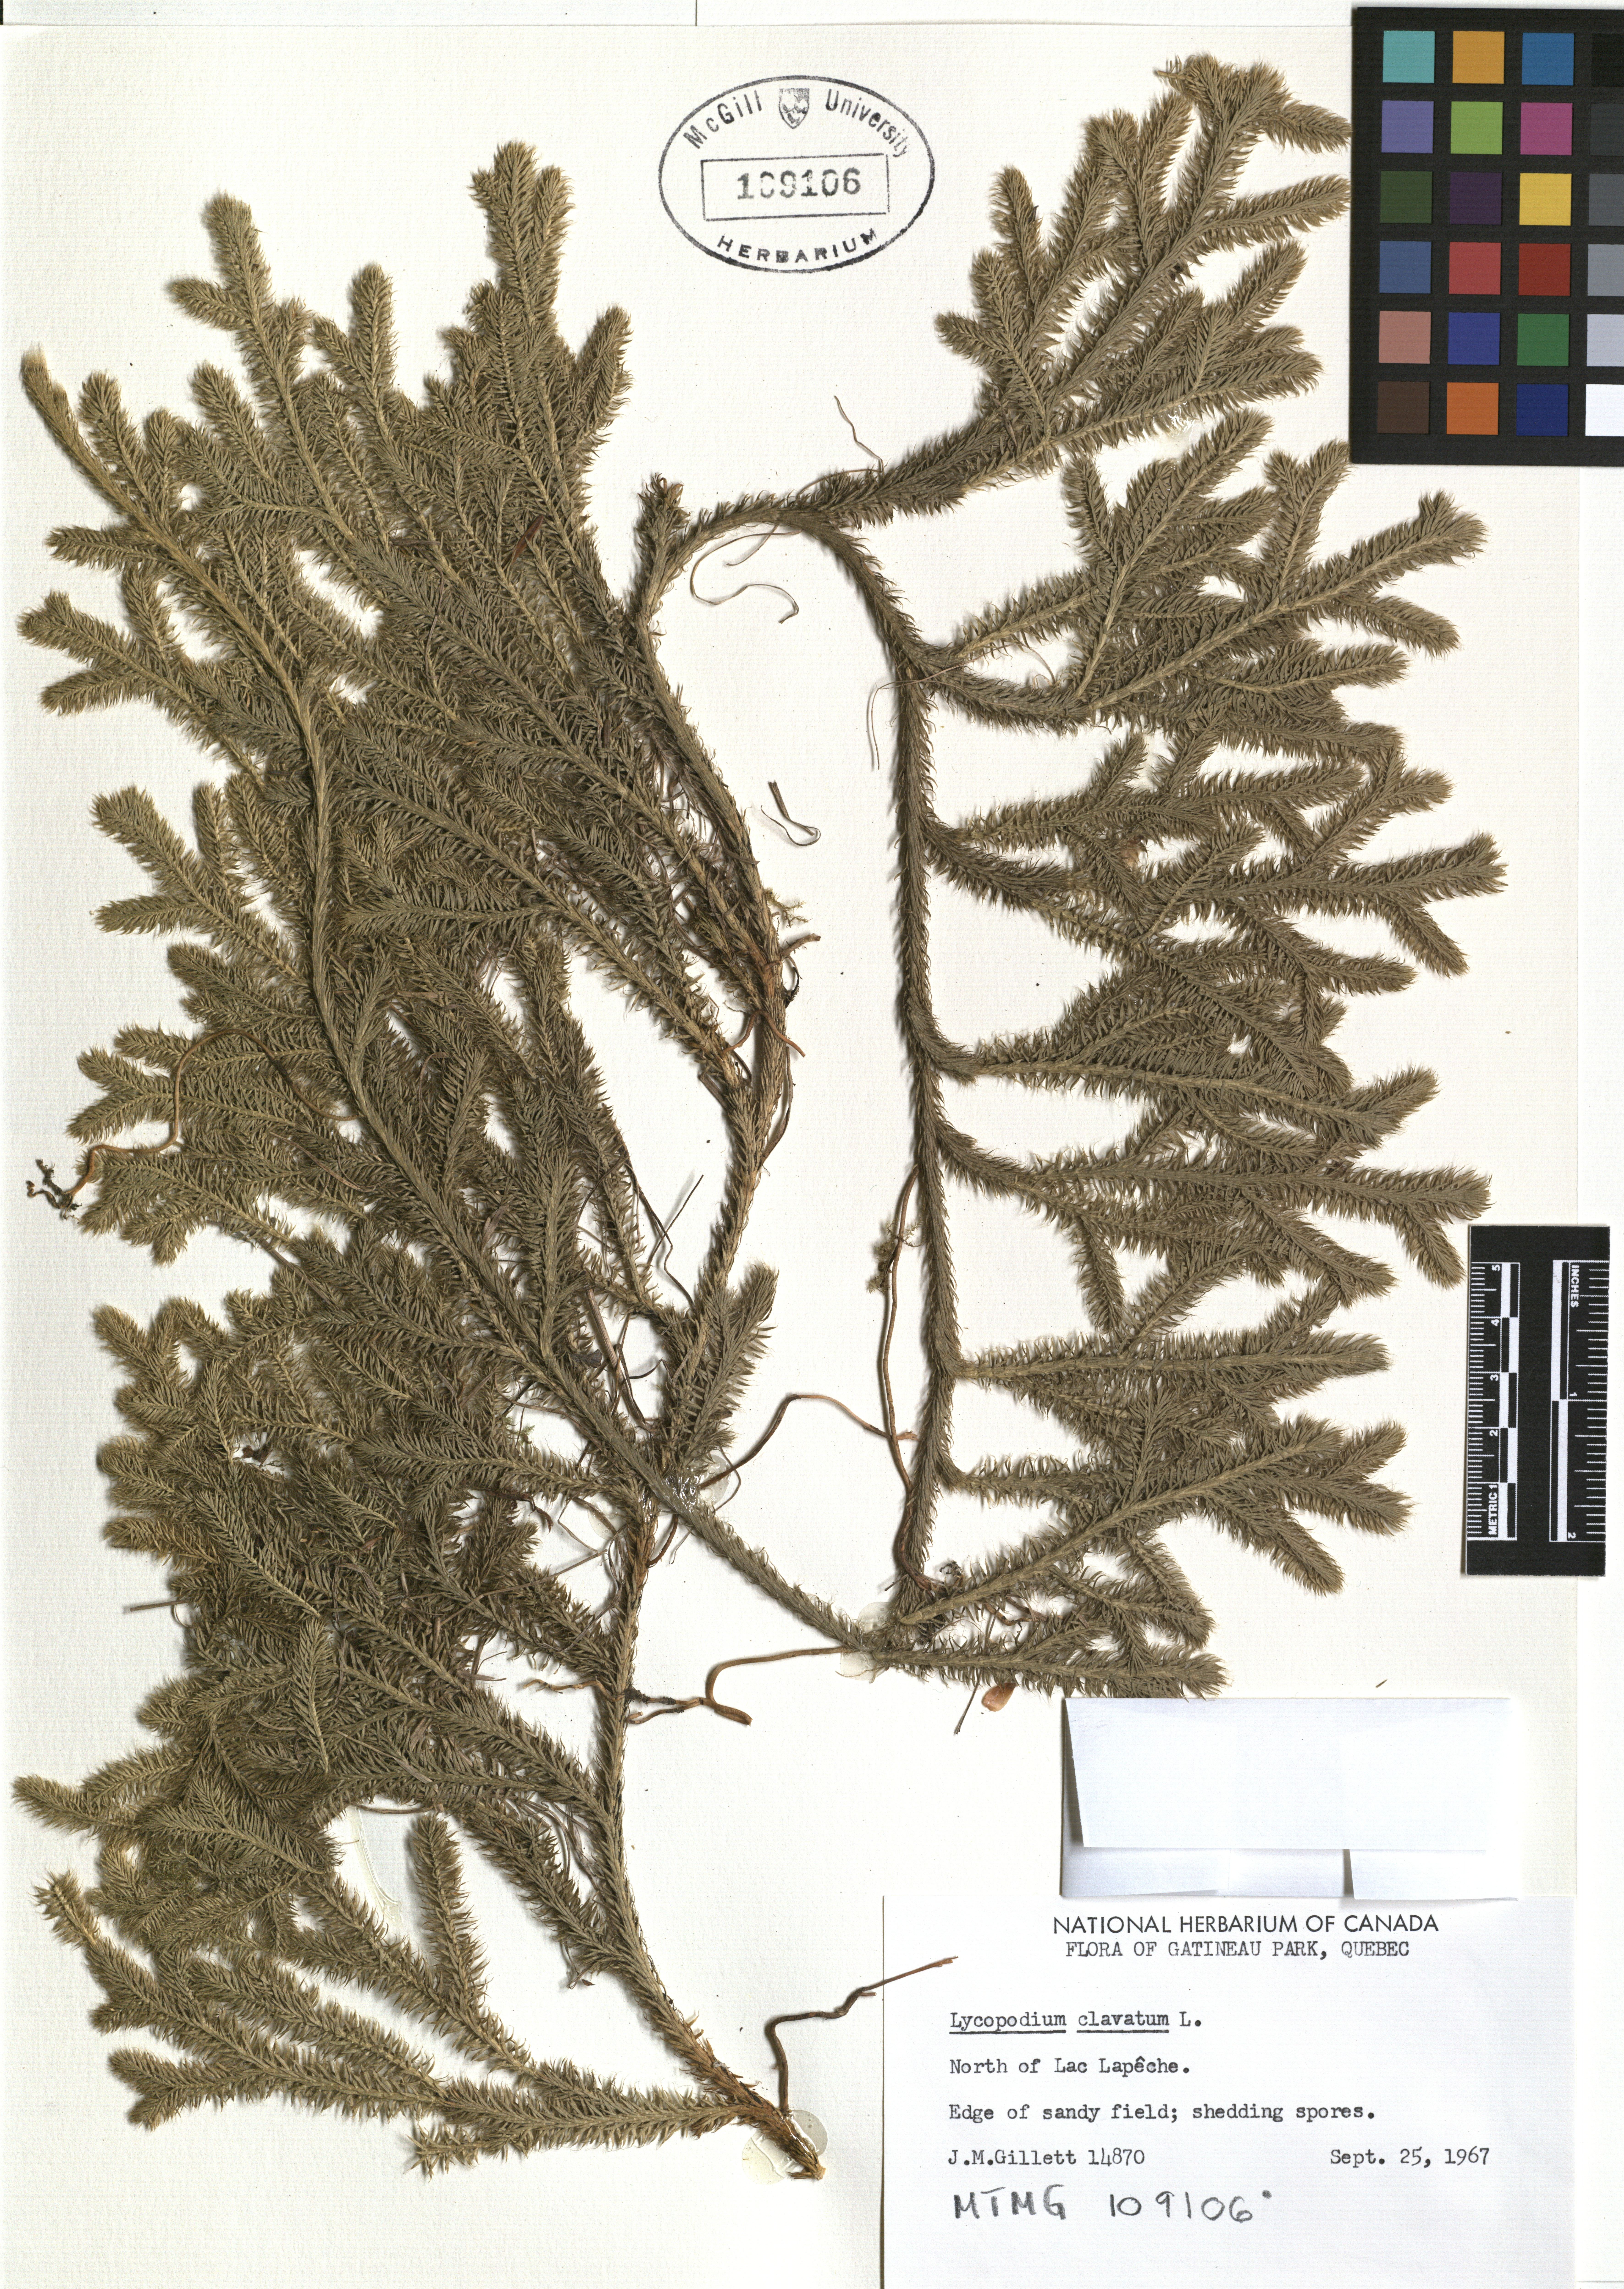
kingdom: Plantae
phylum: Tracheophyta
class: Lycopodiopsida
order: Lycopodiales
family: Lycopodiaceae
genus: Lycopodium
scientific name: Lycopodium clavatum
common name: Stag's-horn clubmoss
